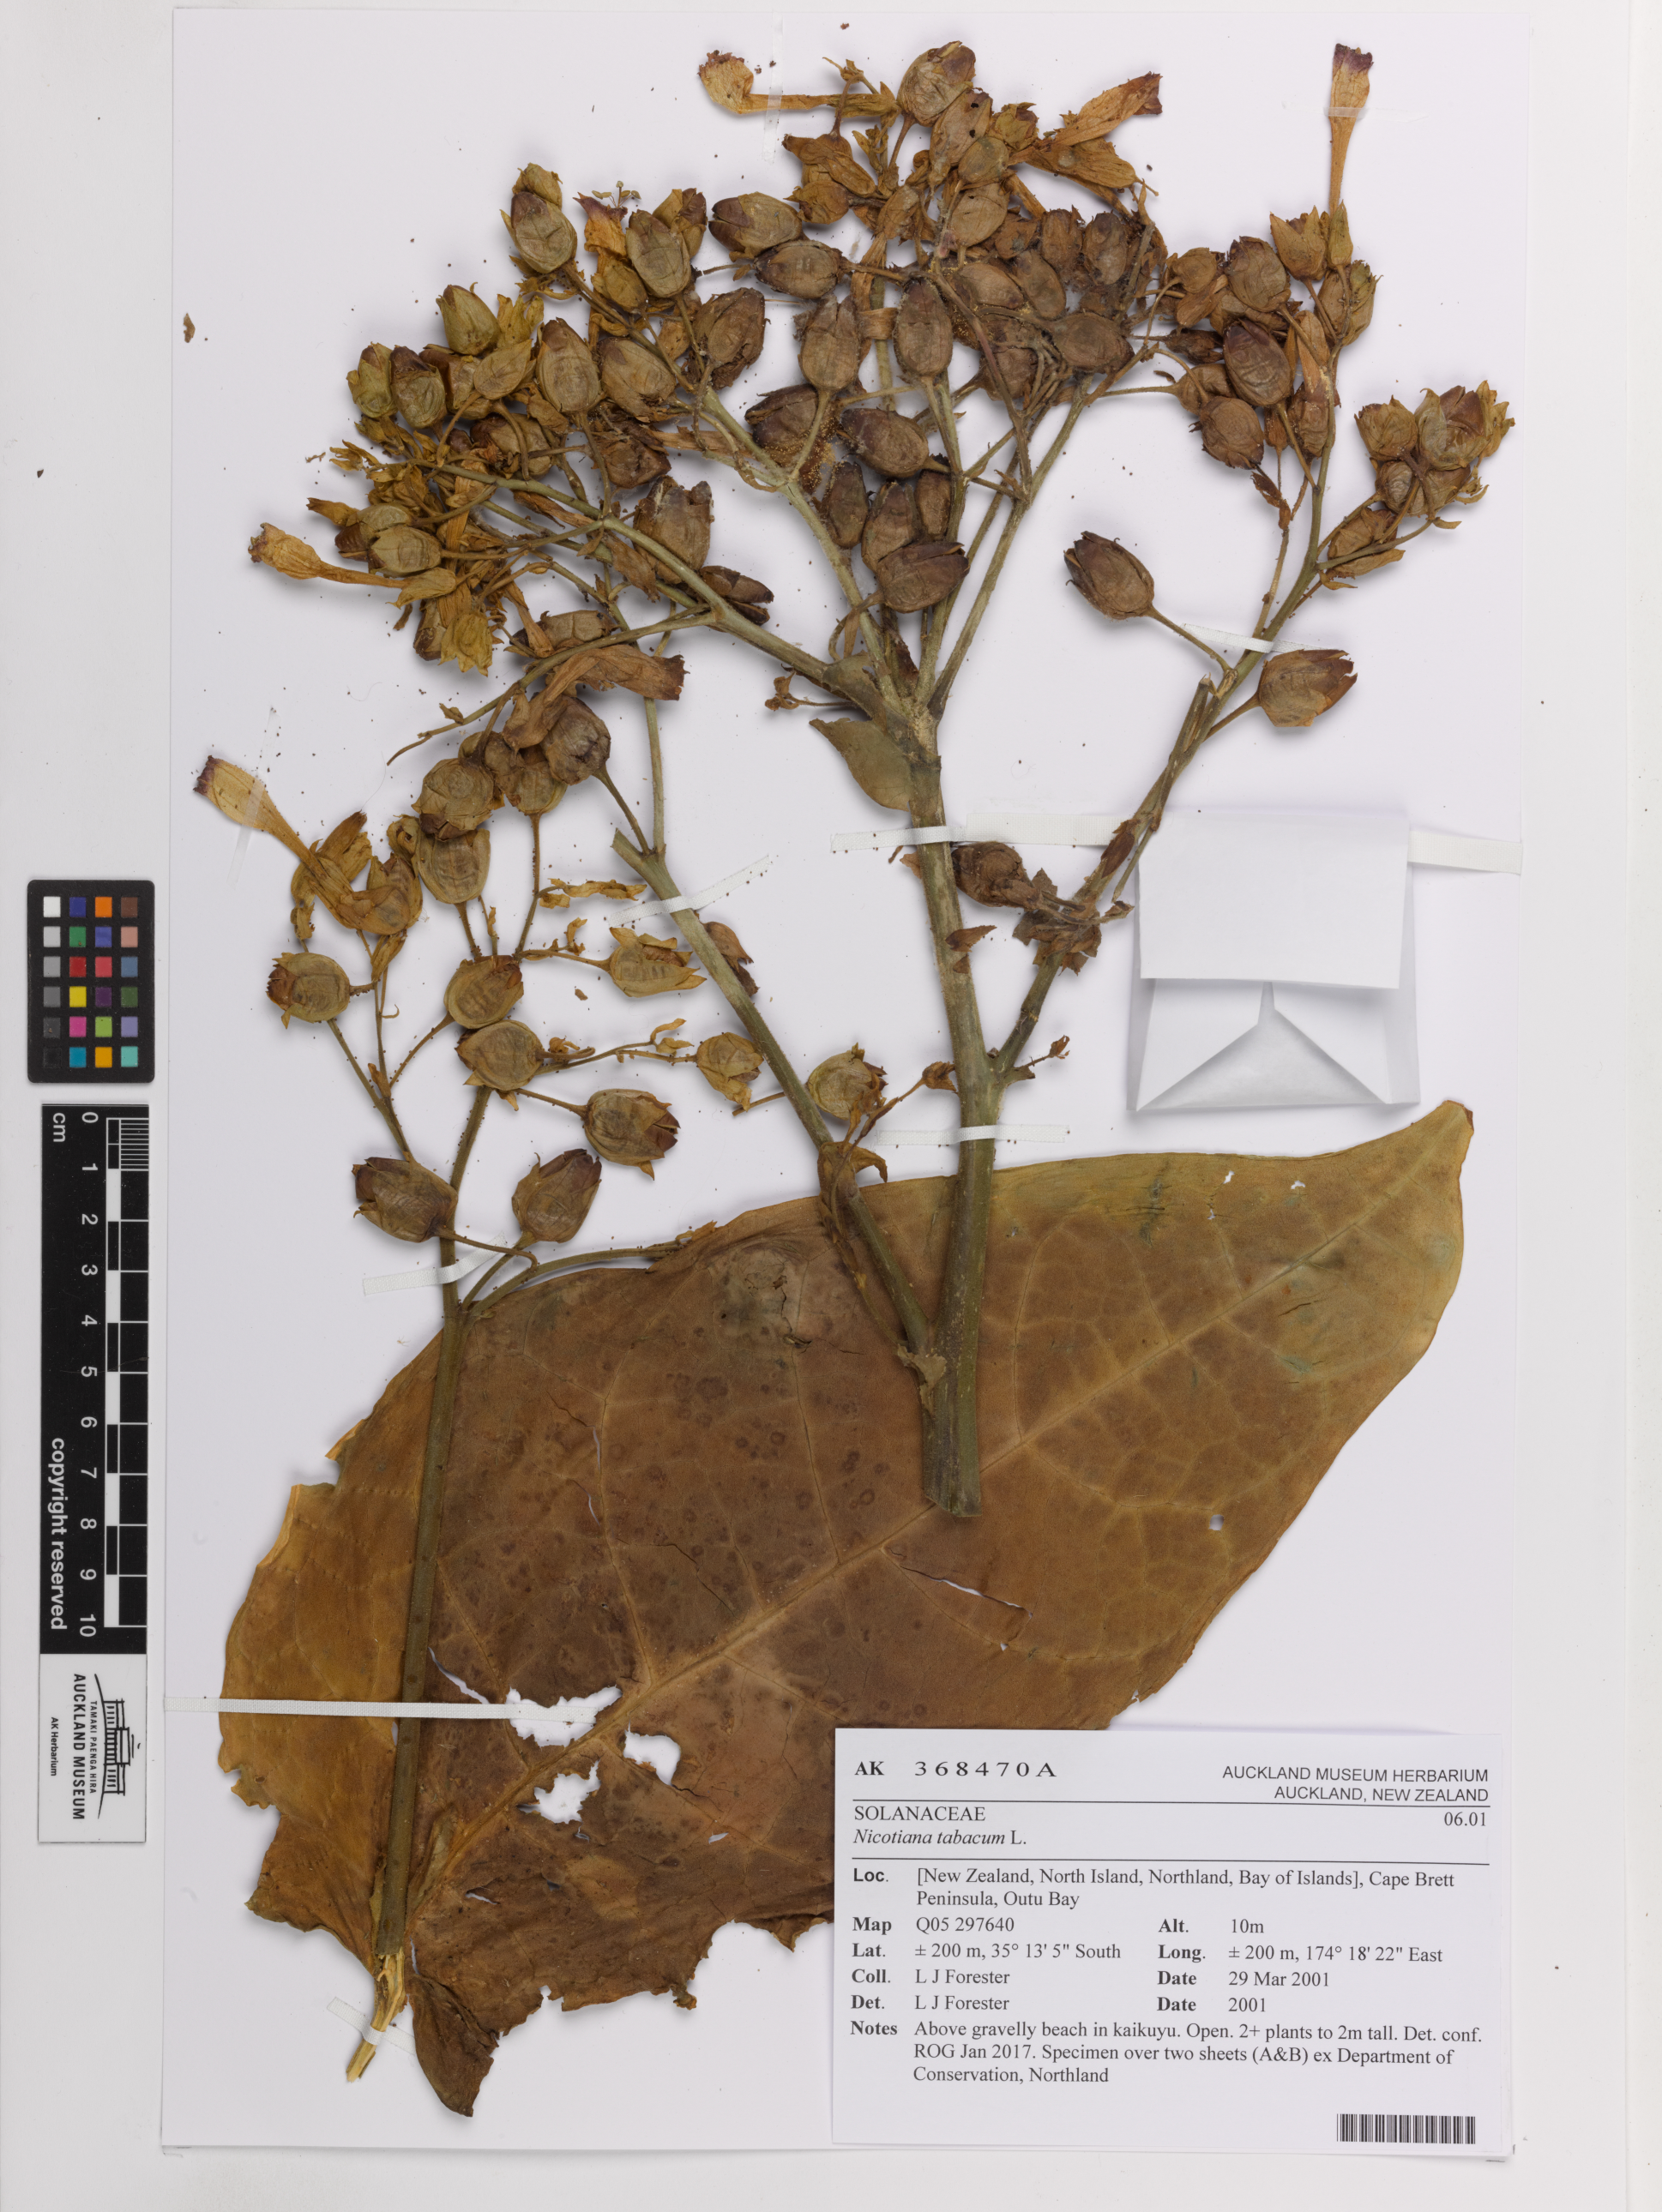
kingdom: Plantae
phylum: Tracheophyta
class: Magnoliopsida
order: Solanales
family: Solanaceae
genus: Nicotiana
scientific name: Nicotiana tabacum
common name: Tobacco
